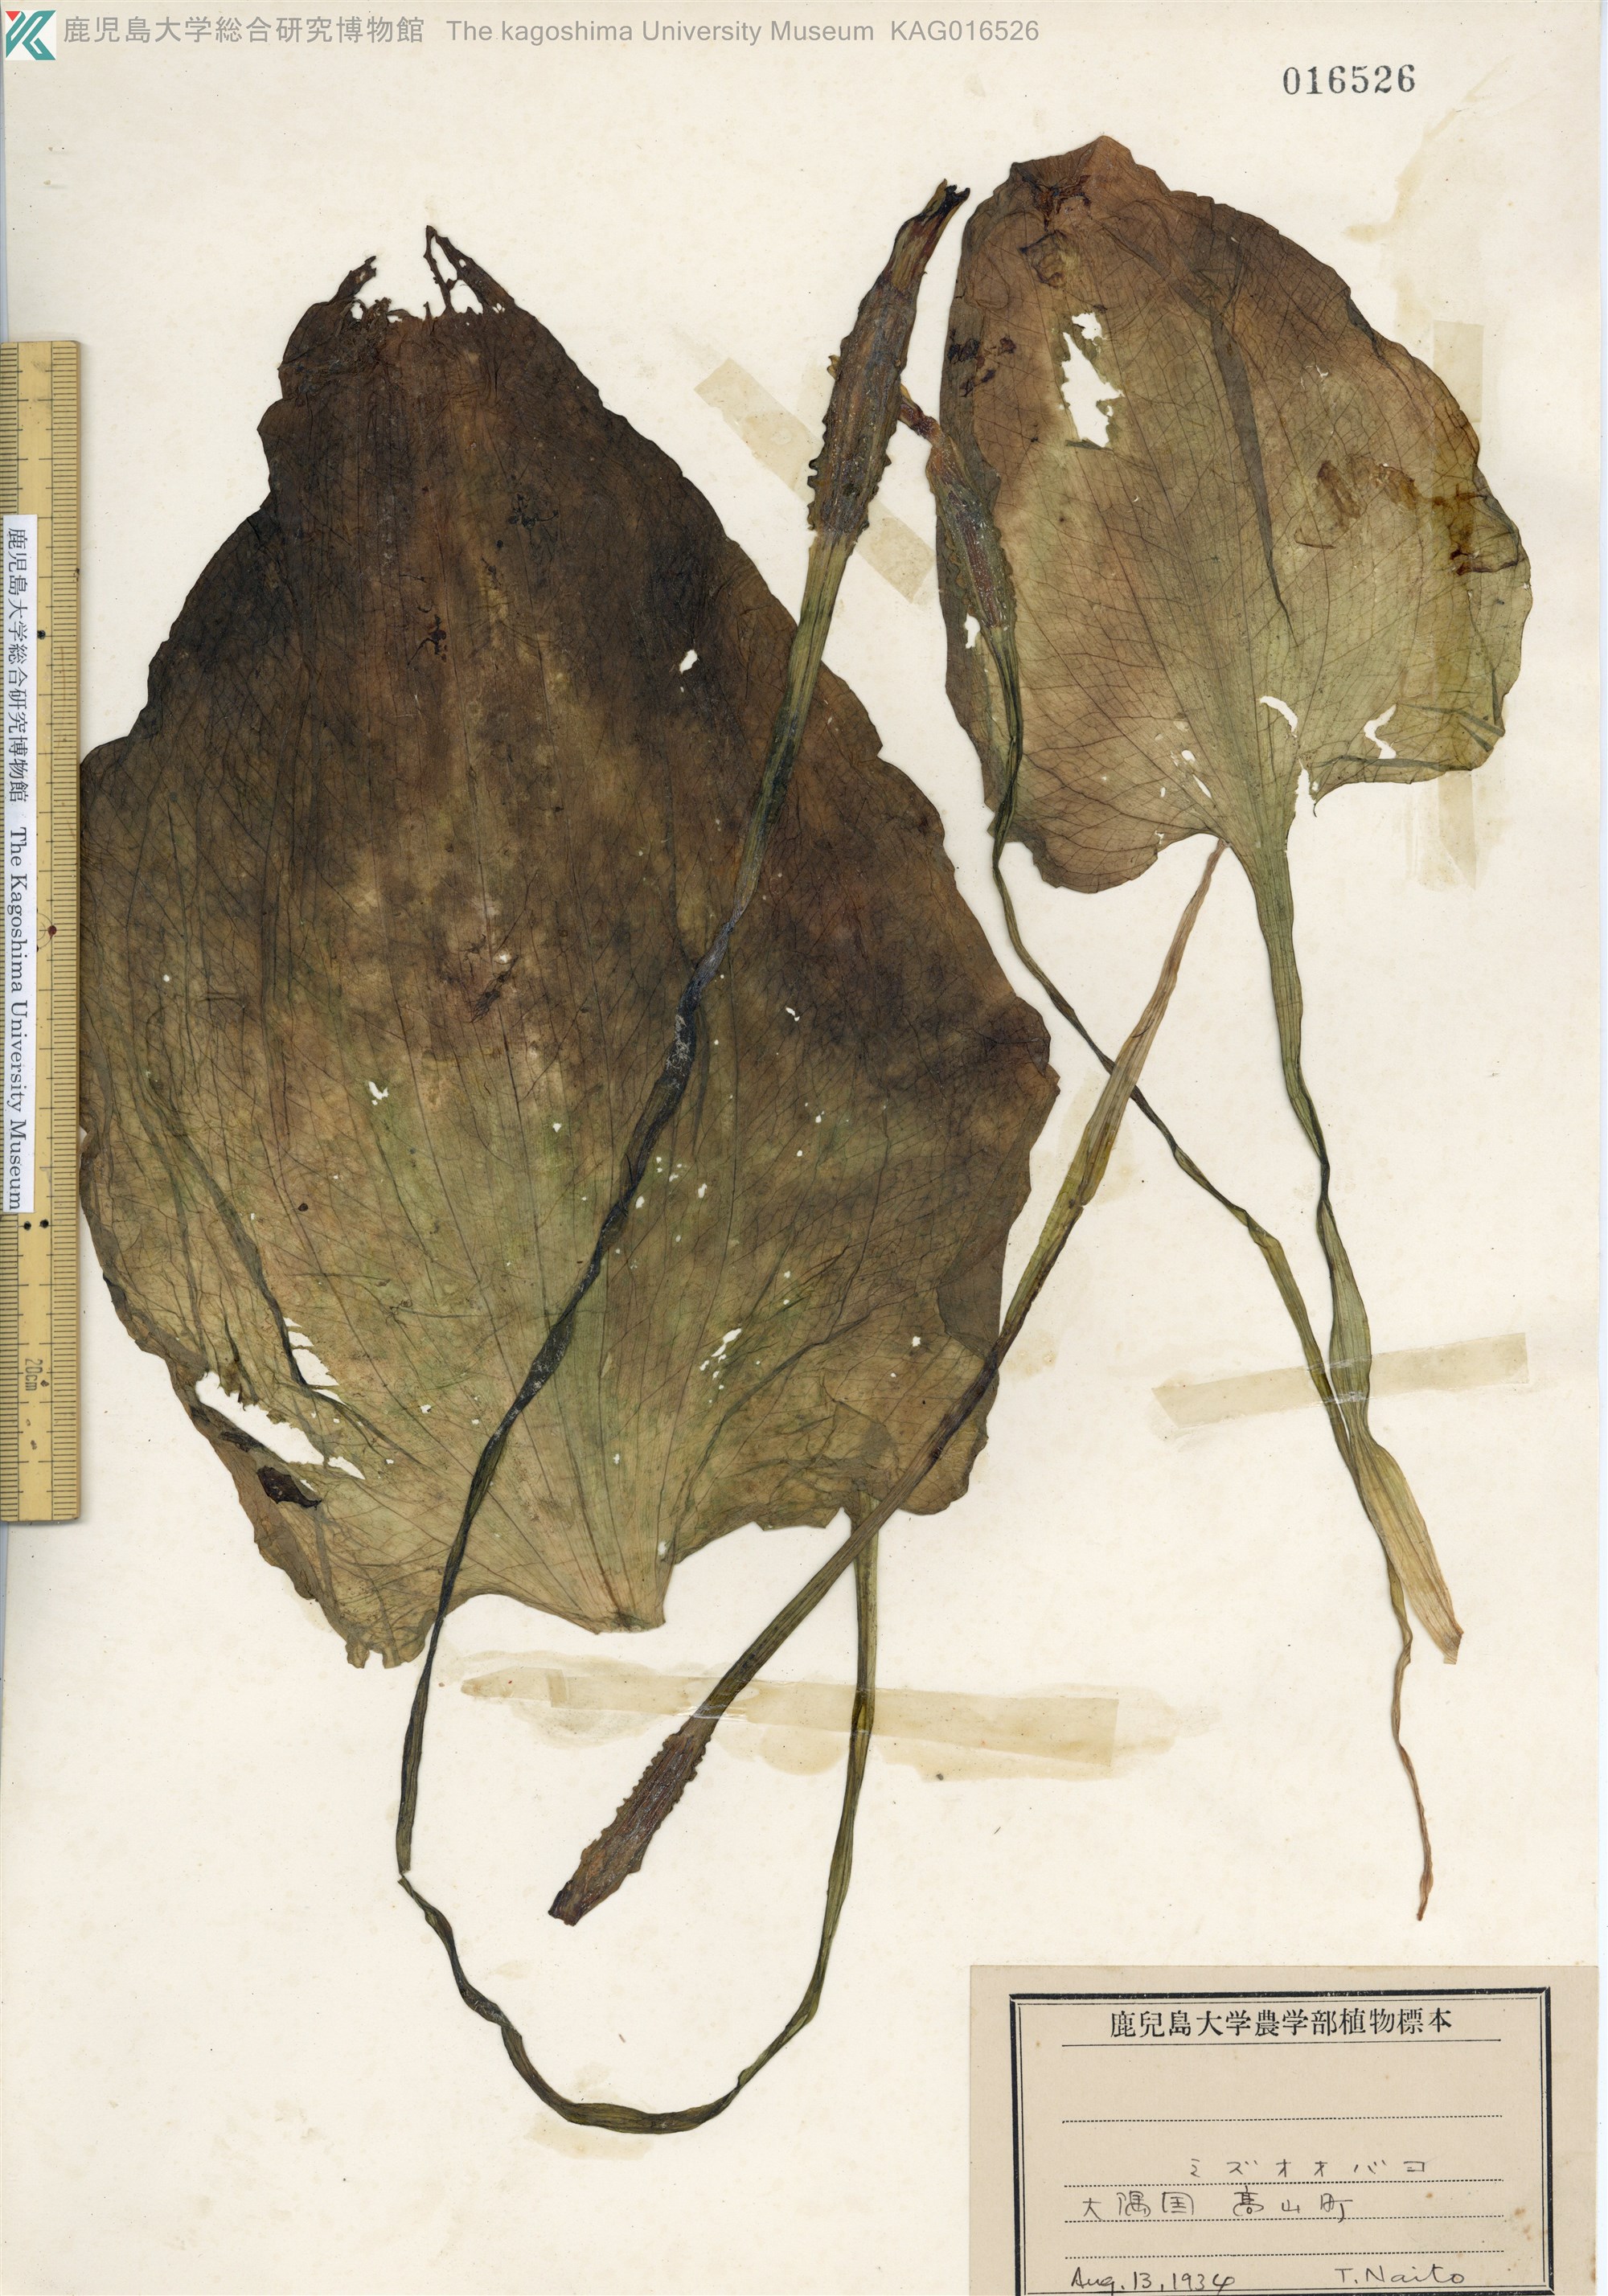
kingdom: Plantae
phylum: Tracheophyta
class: Liliopsida
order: Alismatales
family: Hydrocharitaceae
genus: Ottelia
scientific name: Ottelia alismoides
